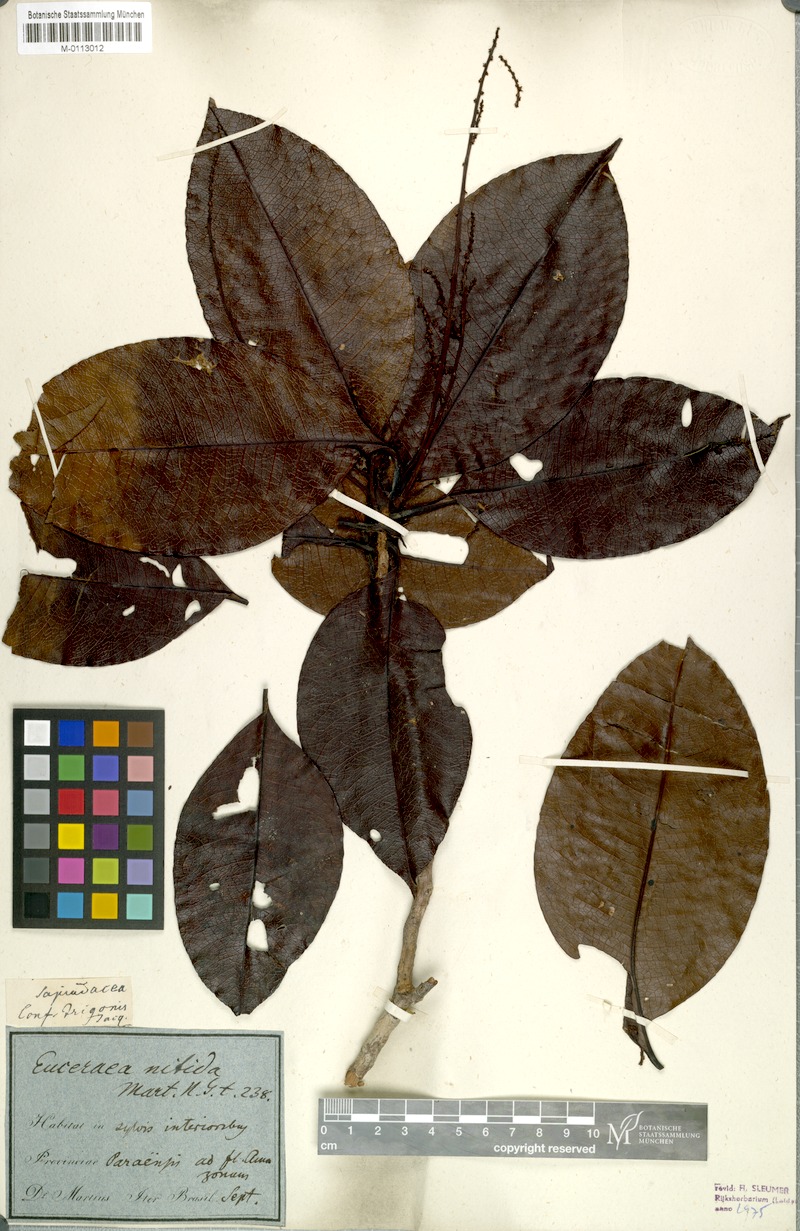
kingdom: Plantae
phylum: Tracheophyta
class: Magnoliopsida
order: Malpighiales
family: Salicaceae
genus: Casearia
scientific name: Casearia euceraea
